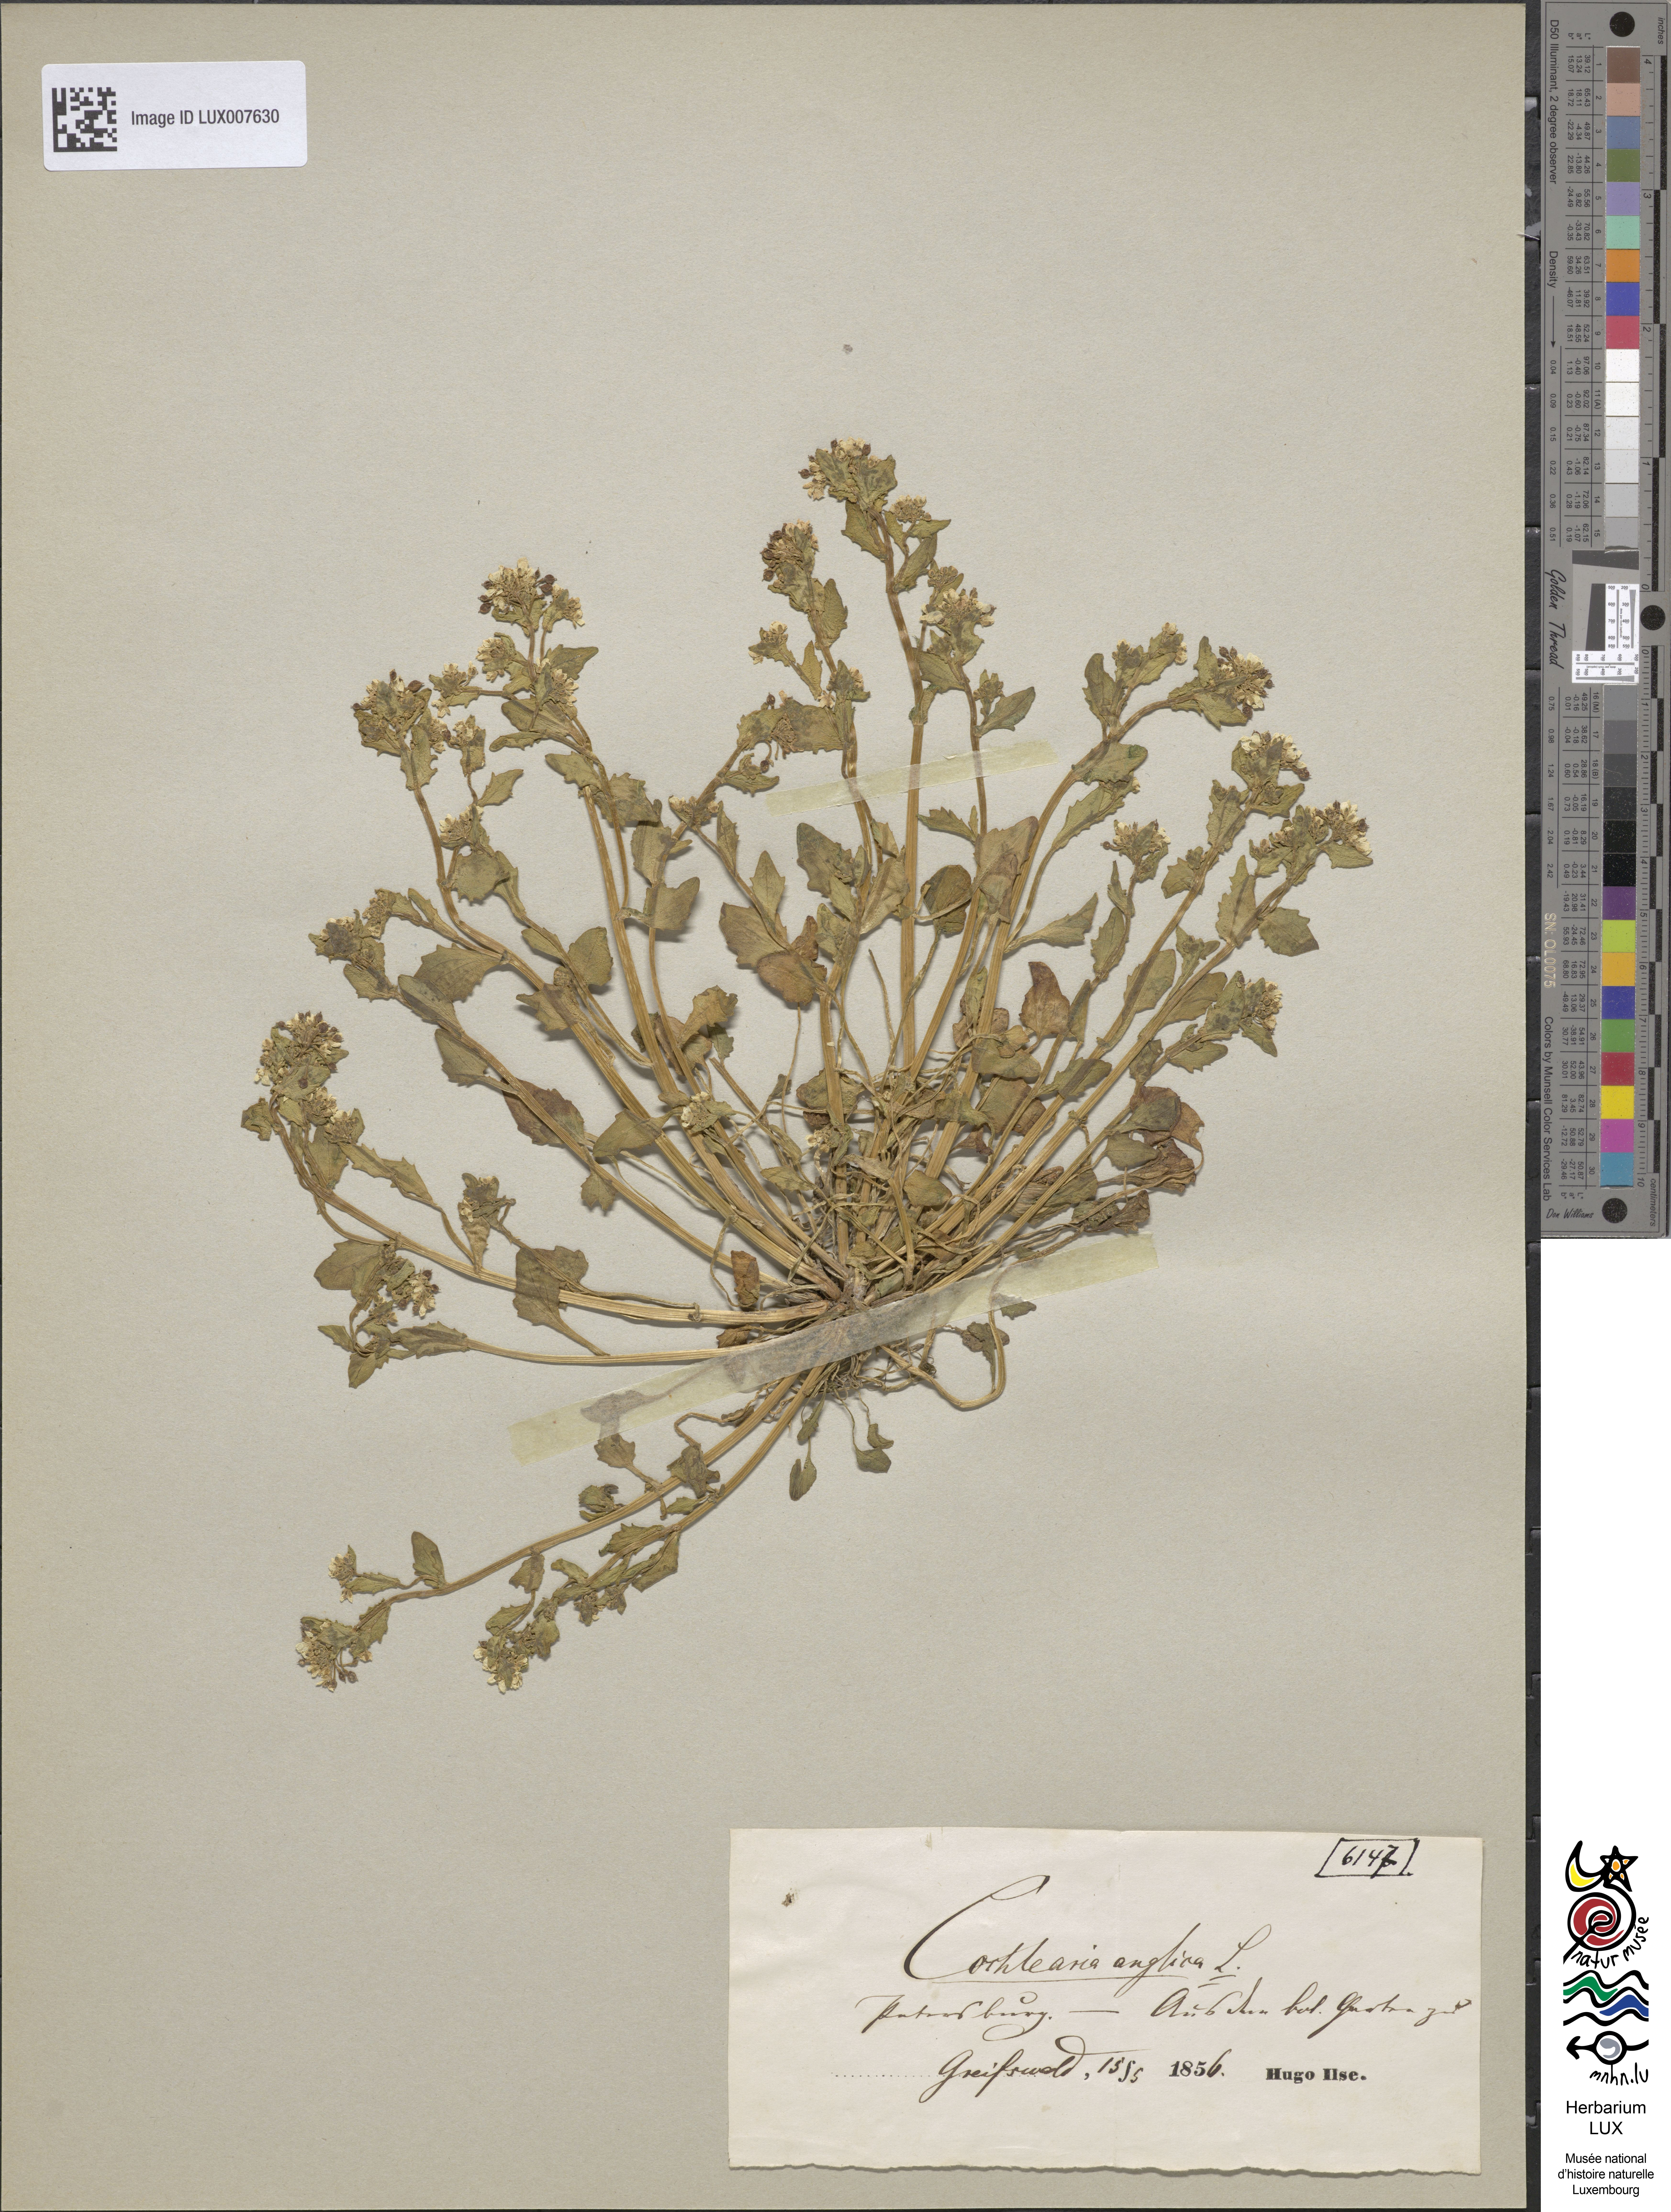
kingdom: Plantae
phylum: Tracheophyta
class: Magnoliopsida
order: Brassicales
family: Brassicaceae
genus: Cochlearia
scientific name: Cochlearia anglica
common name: English scurvygrass
